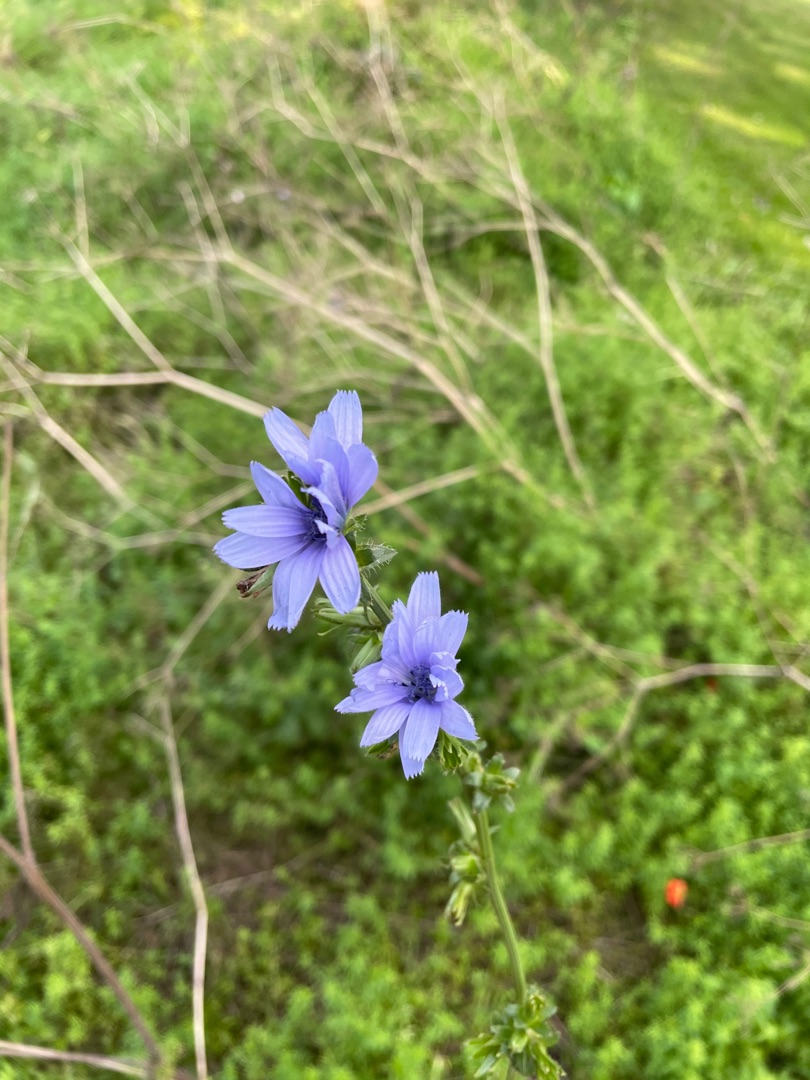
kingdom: Plantae
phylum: Tracheophyta
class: Magnoliopsida
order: Asterales
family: Asteraceae
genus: Cichorium
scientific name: Cichorium intybus
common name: Cikorie
